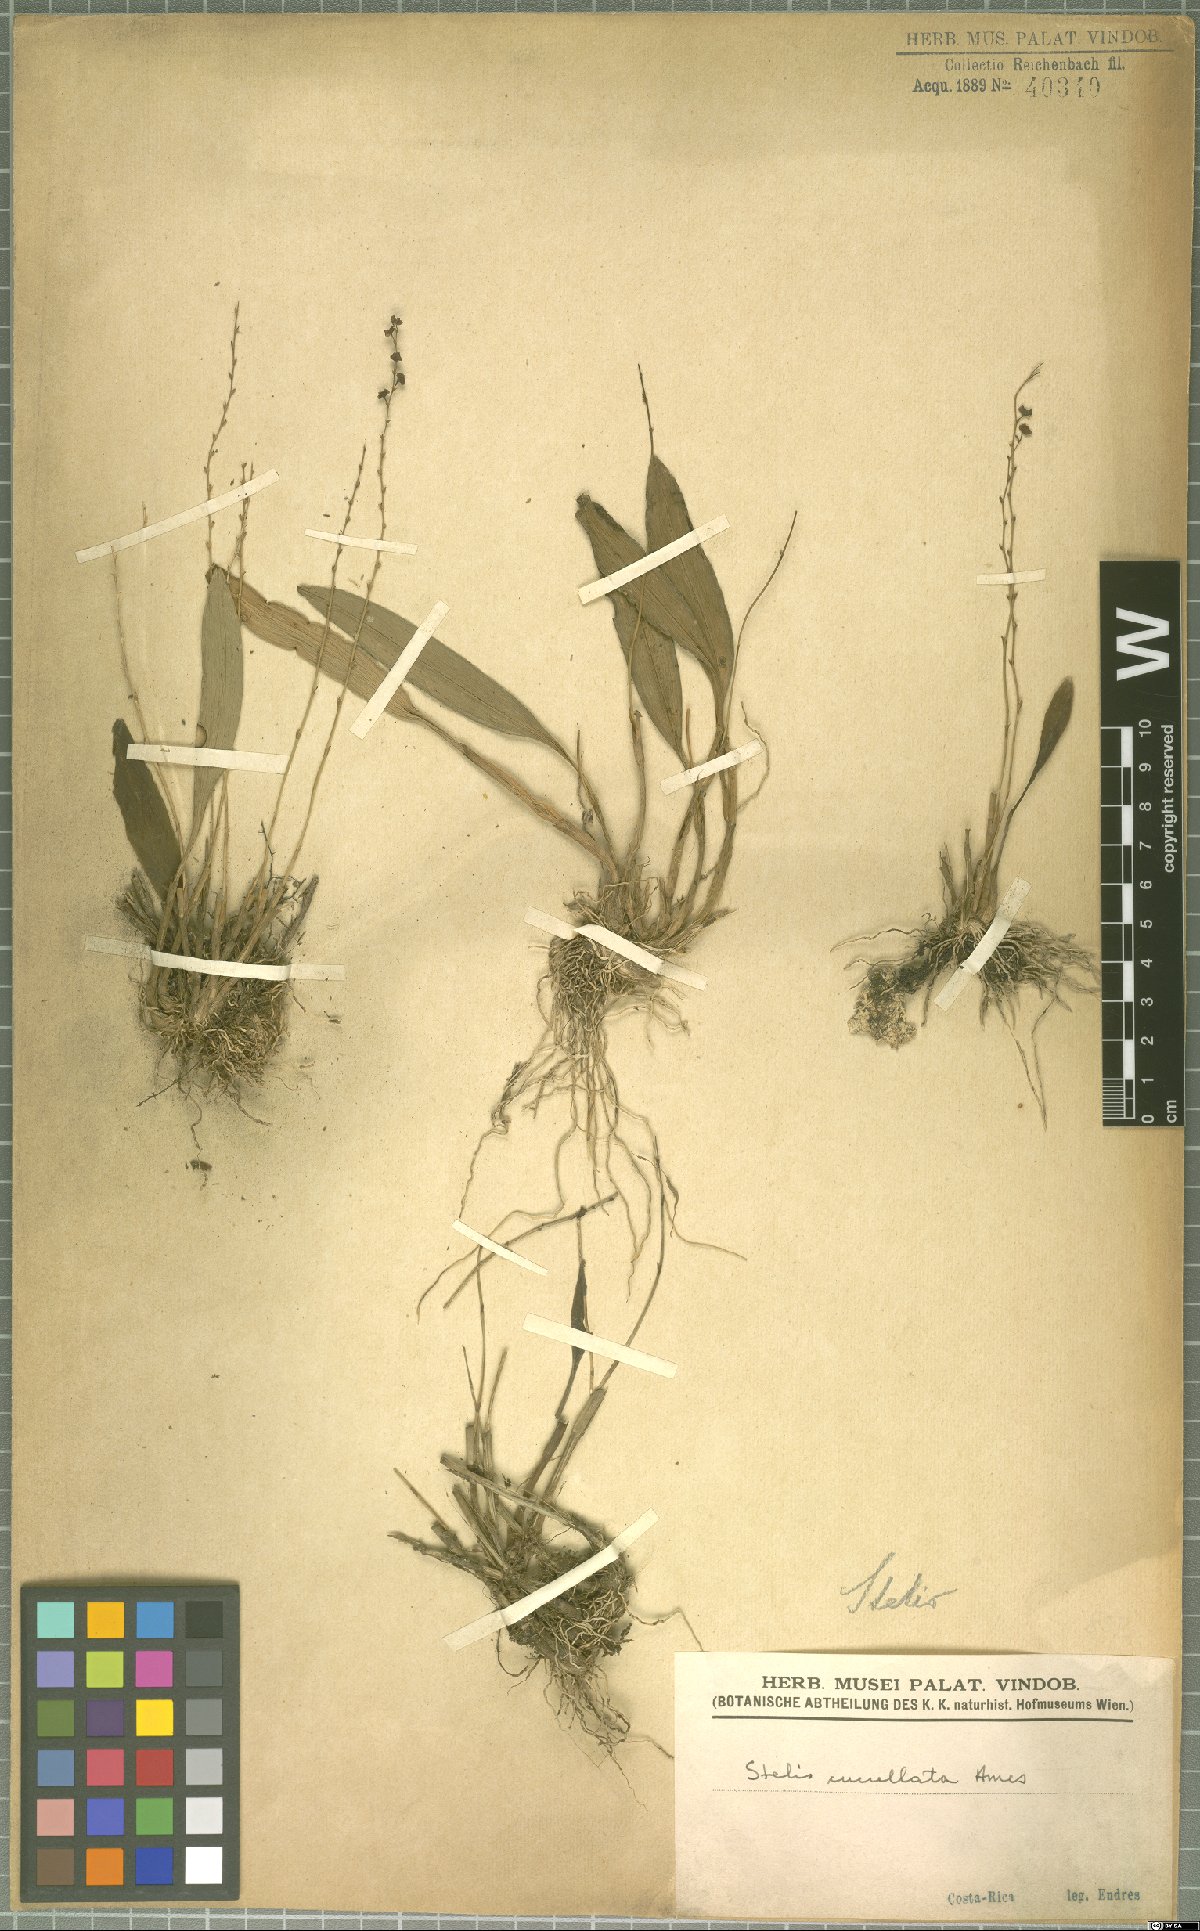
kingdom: Plantae
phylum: Tracheophyta
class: Liliopsida
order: Asparagales
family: Orchidaceae
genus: Stelis
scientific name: Stelis cucullata
